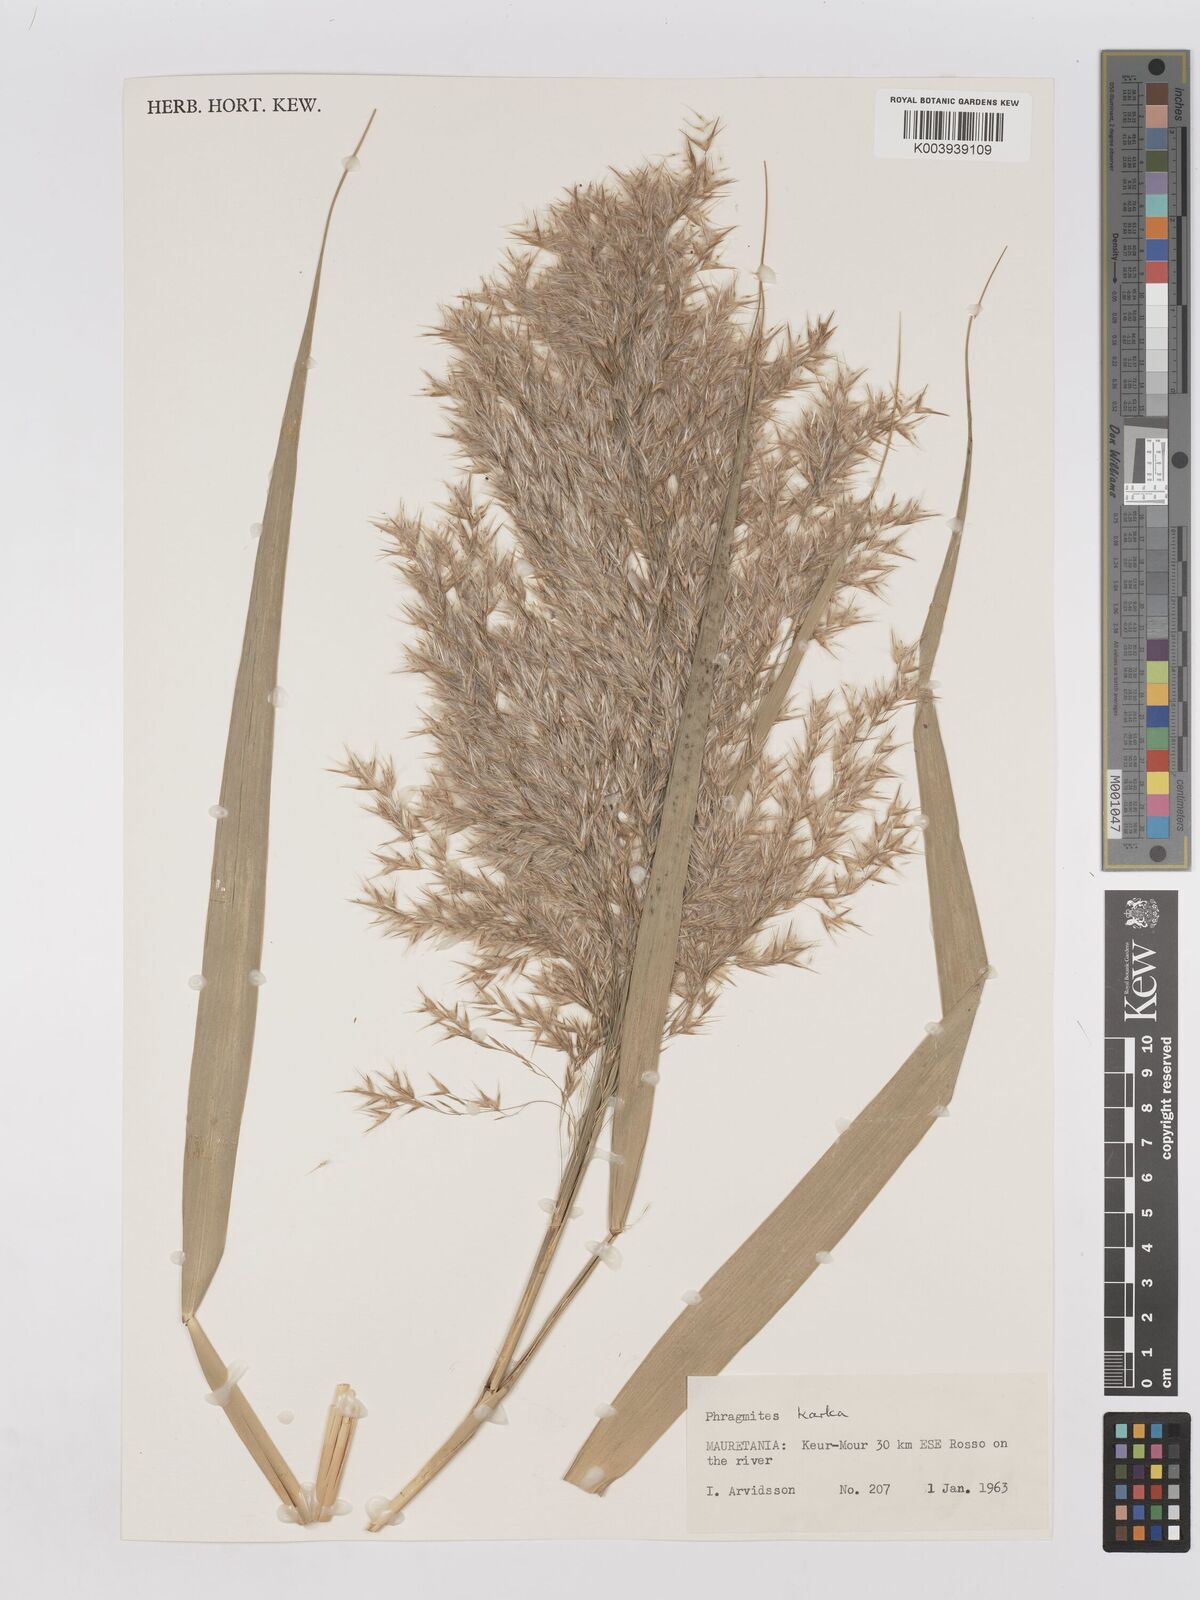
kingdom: Plantae
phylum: Tracheophyta
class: Liliopsida
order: Poales
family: Poaceae
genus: Phragmites
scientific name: Phragmites karka
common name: Tropical reed
